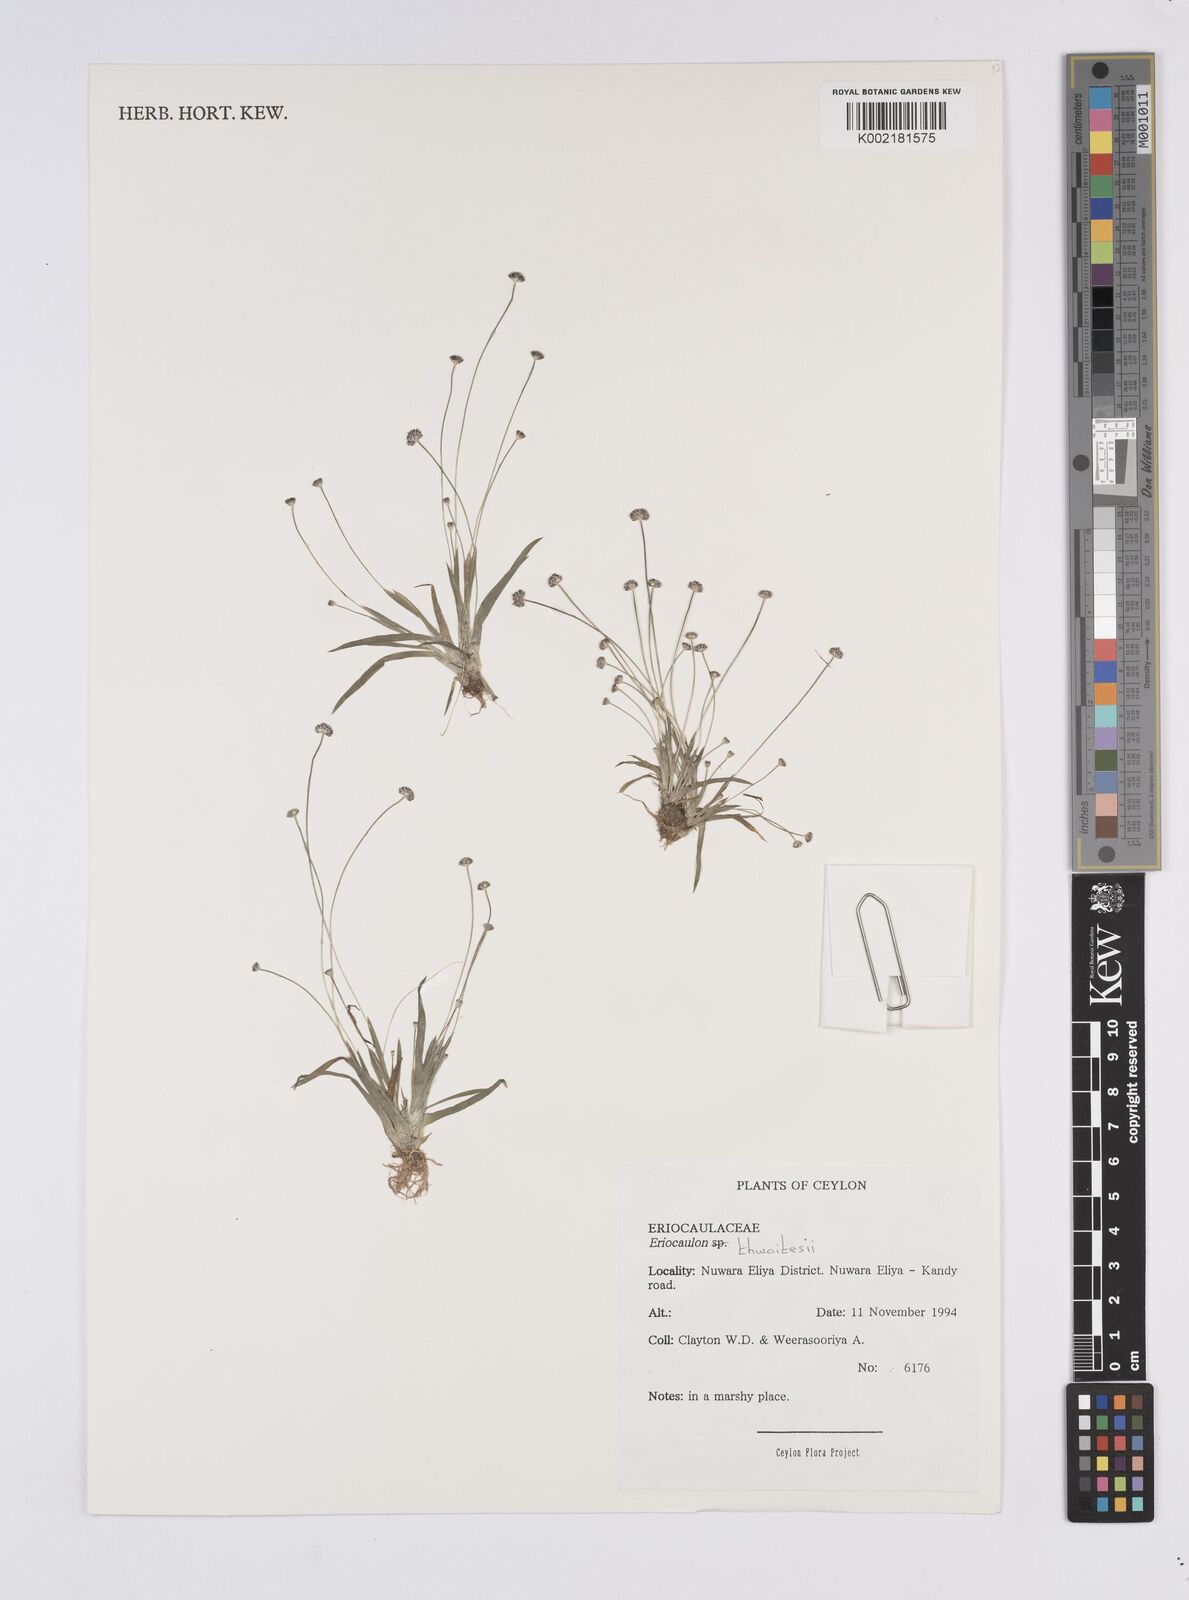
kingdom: Plantae
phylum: Tracheophyta
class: Liliopsida
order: Poales
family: Eriocaulaceae
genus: Eriocaulon
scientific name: Eriocaulon thwaitesii
